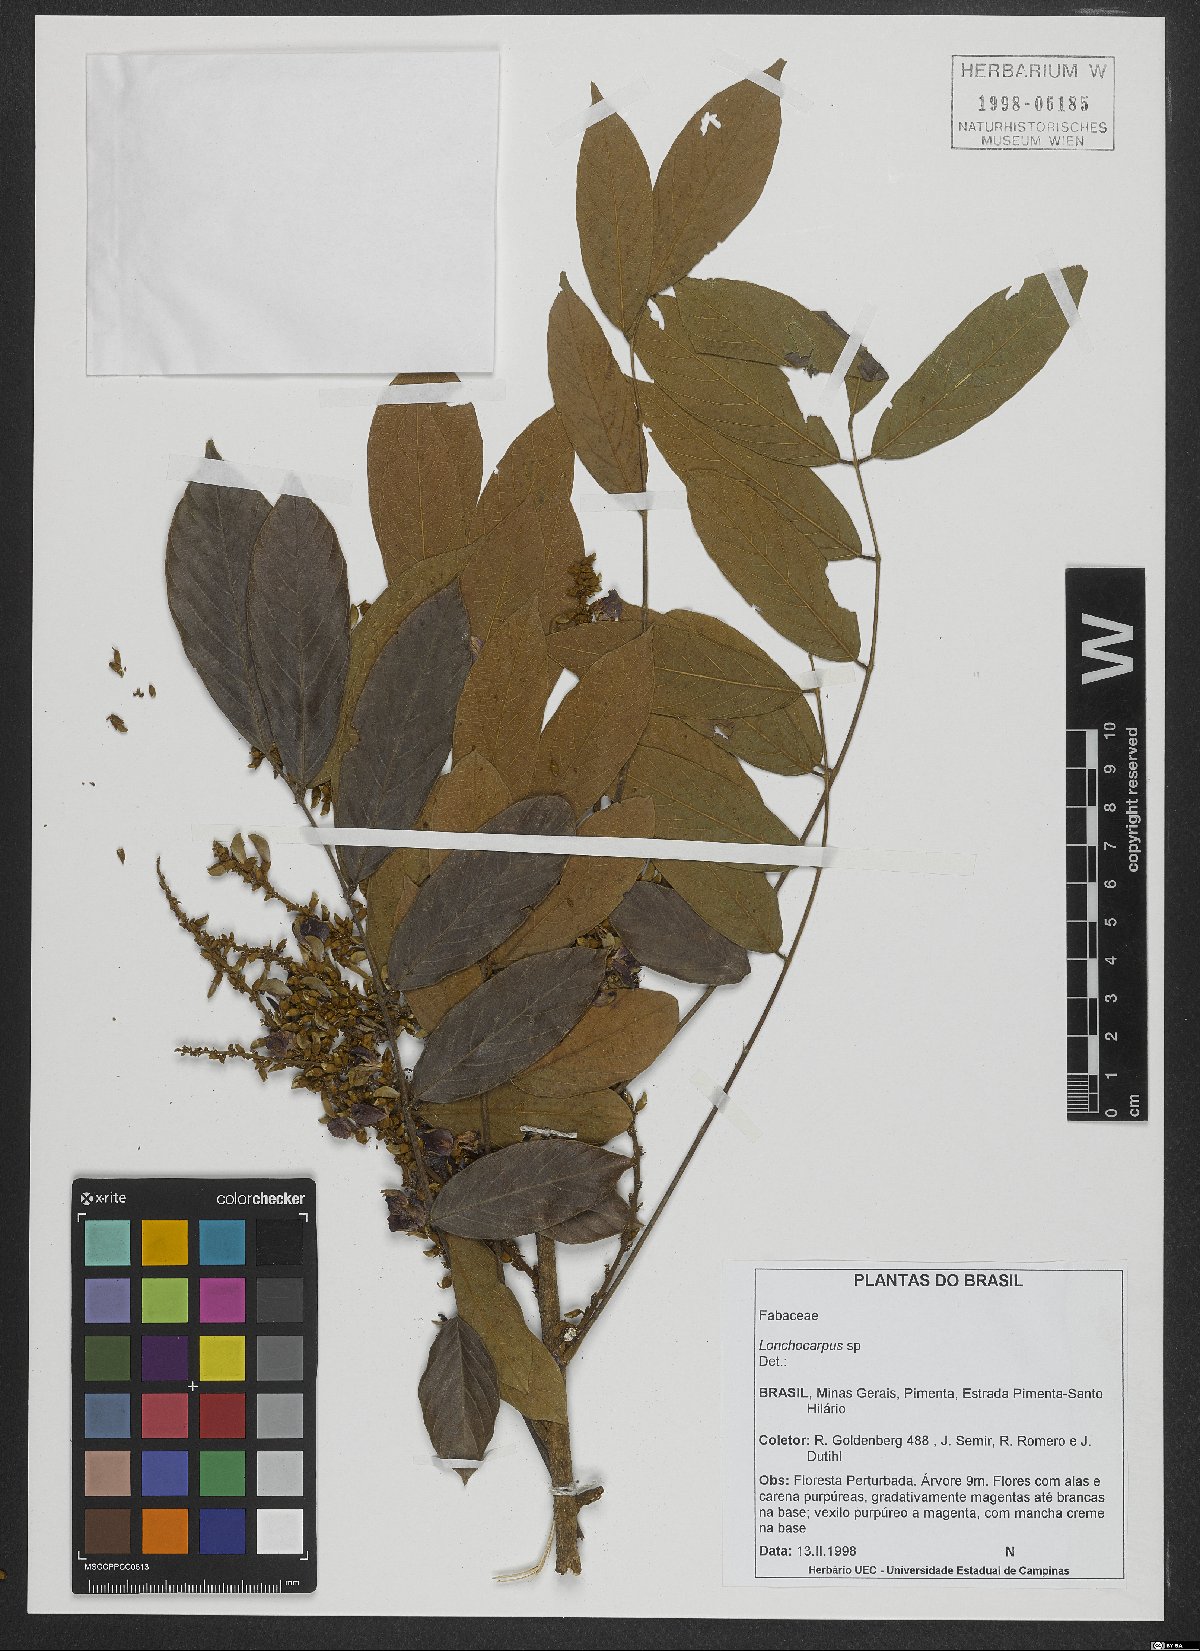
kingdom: Plantae
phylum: Tracheophyta
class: Magnoliopsida
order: Fabales
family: Fabaceae
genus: Lonchocarpus
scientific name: Lonchocarpus
